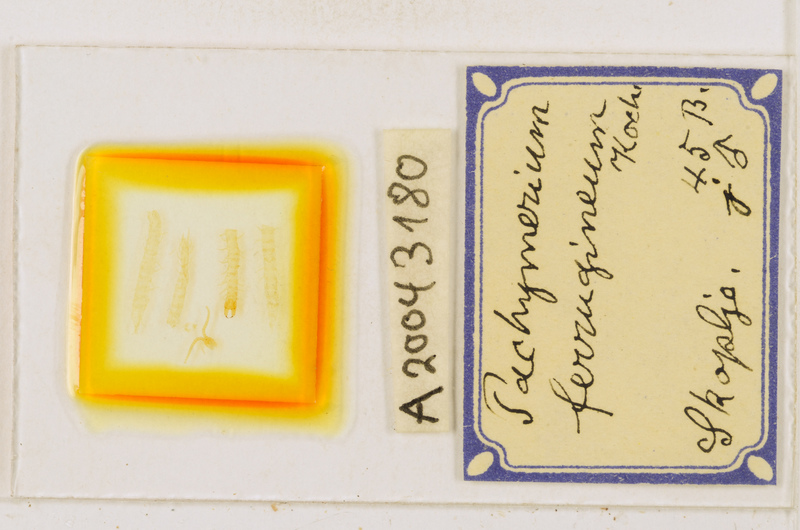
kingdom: Animalia
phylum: Arthropoda
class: Chilopoda
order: Geophilomorpha
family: Geophilidae
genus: Pachymerium
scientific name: Pachymerium ferrugineum
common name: Centipede
